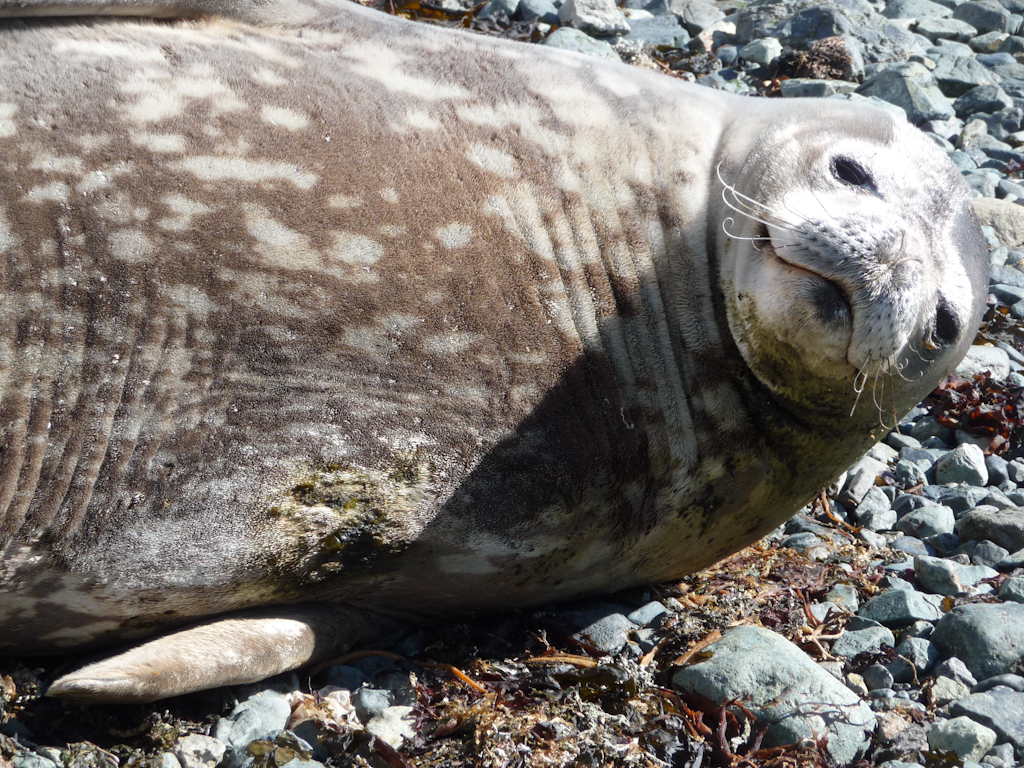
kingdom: Animalia
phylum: Chordata
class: Mammalia
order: Carnivora
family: Phocidae
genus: Leptonychotes
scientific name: Leptonychotes weddellii
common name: Weddell Seal
